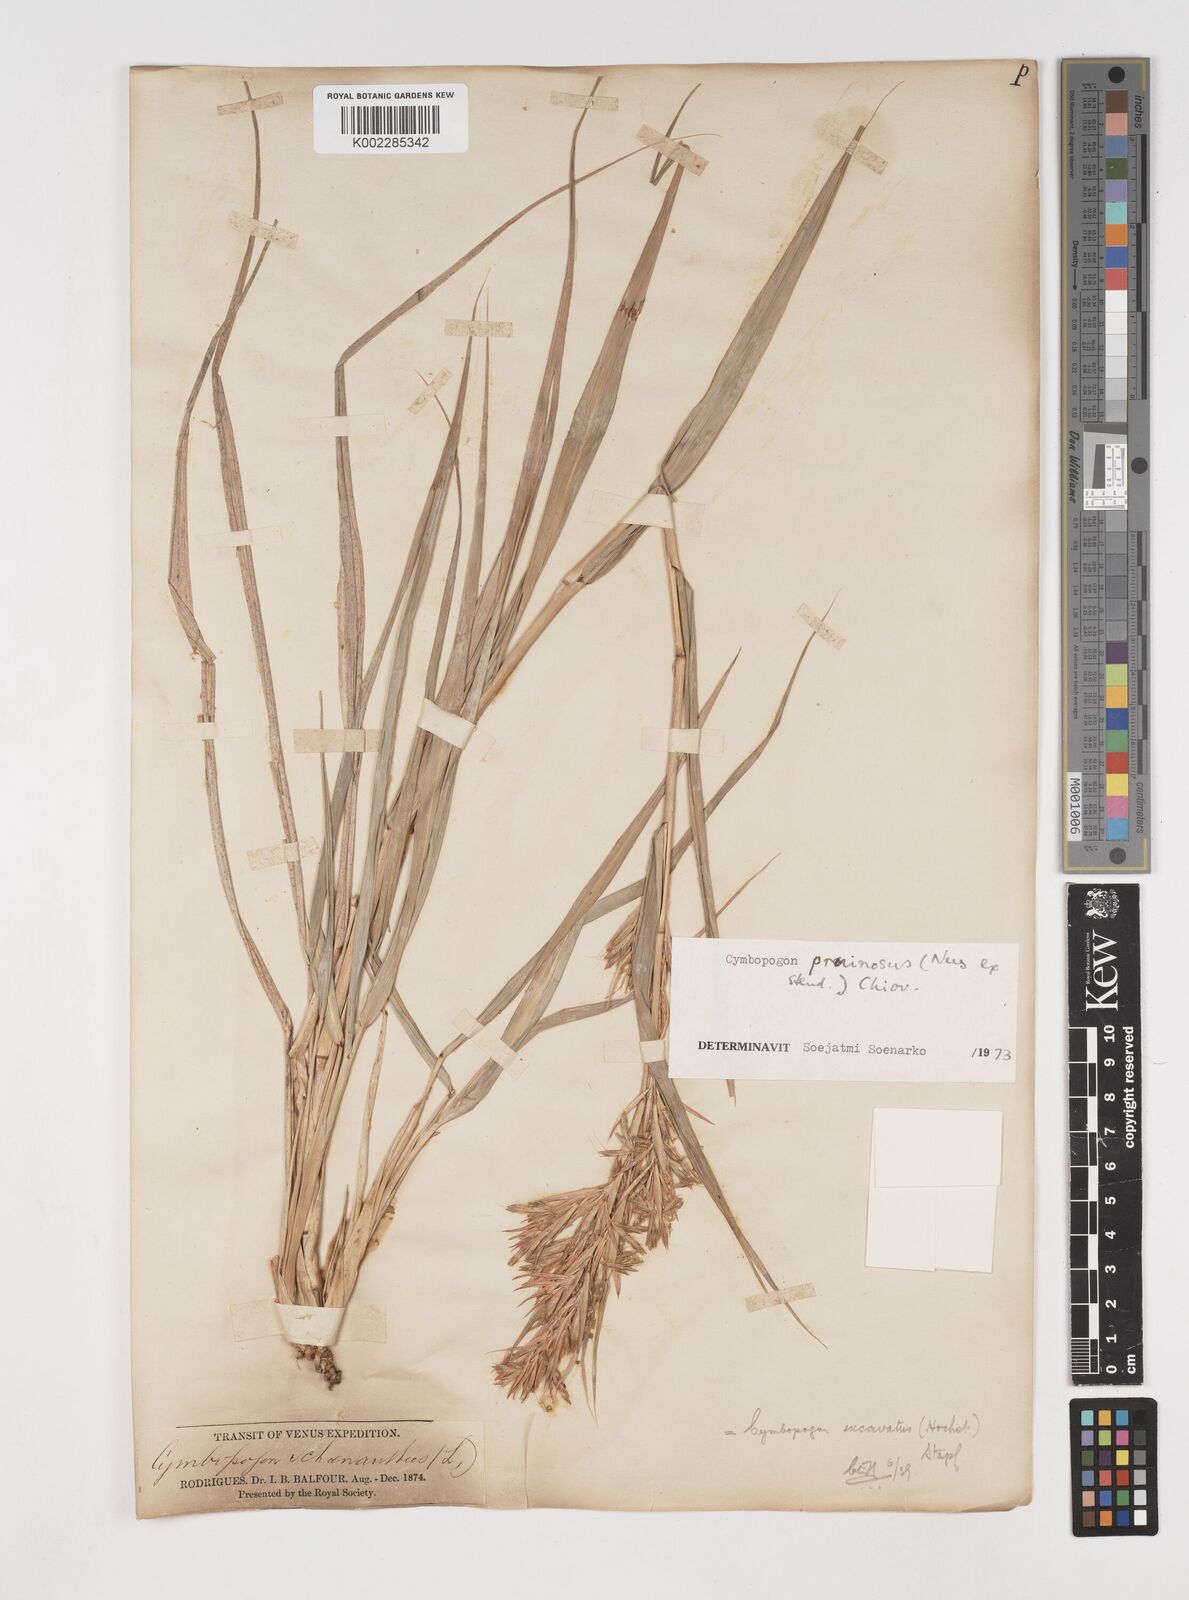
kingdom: Plantae
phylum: Tracheophyta
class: Liliopsida
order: Poales
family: Poaceae
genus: Cymbopogon
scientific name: Cymbopogon pruinosus
